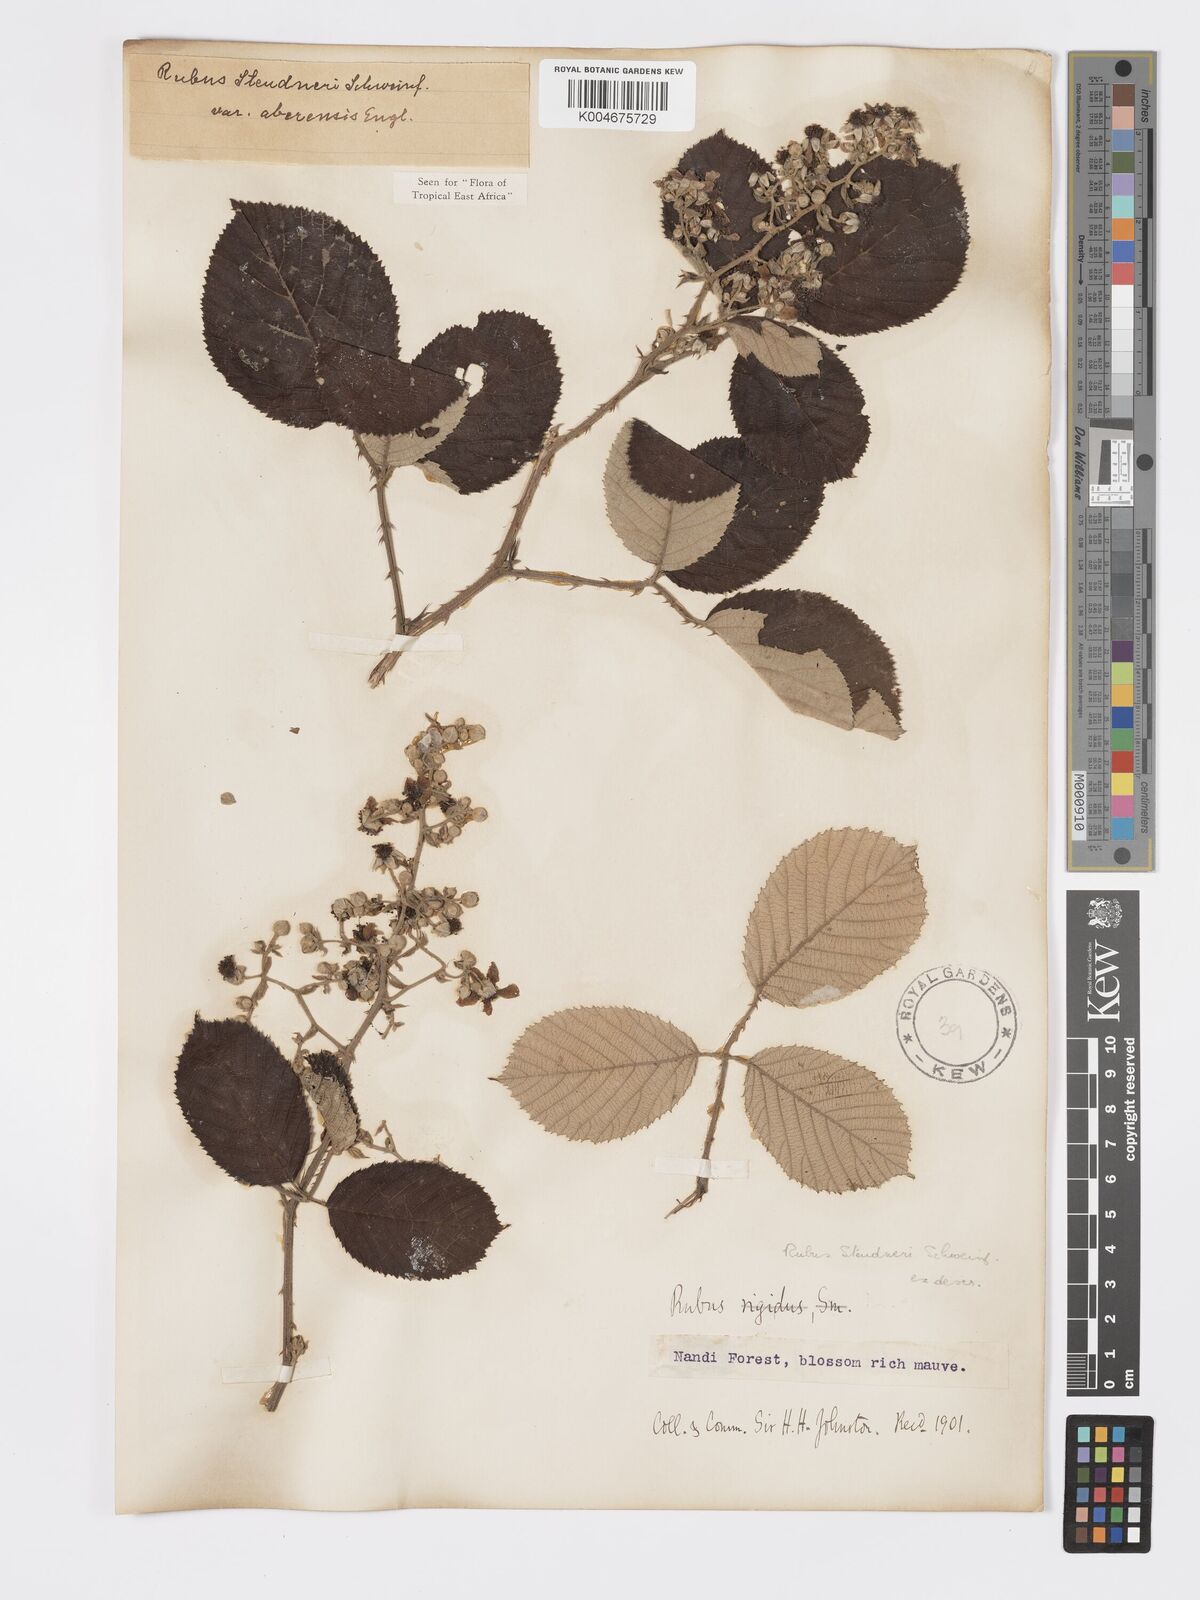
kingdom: Plantae
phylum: Tracheophyta
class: Magnoliopsida
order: Rosales
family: Rosaceae
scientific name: Rosaceae
